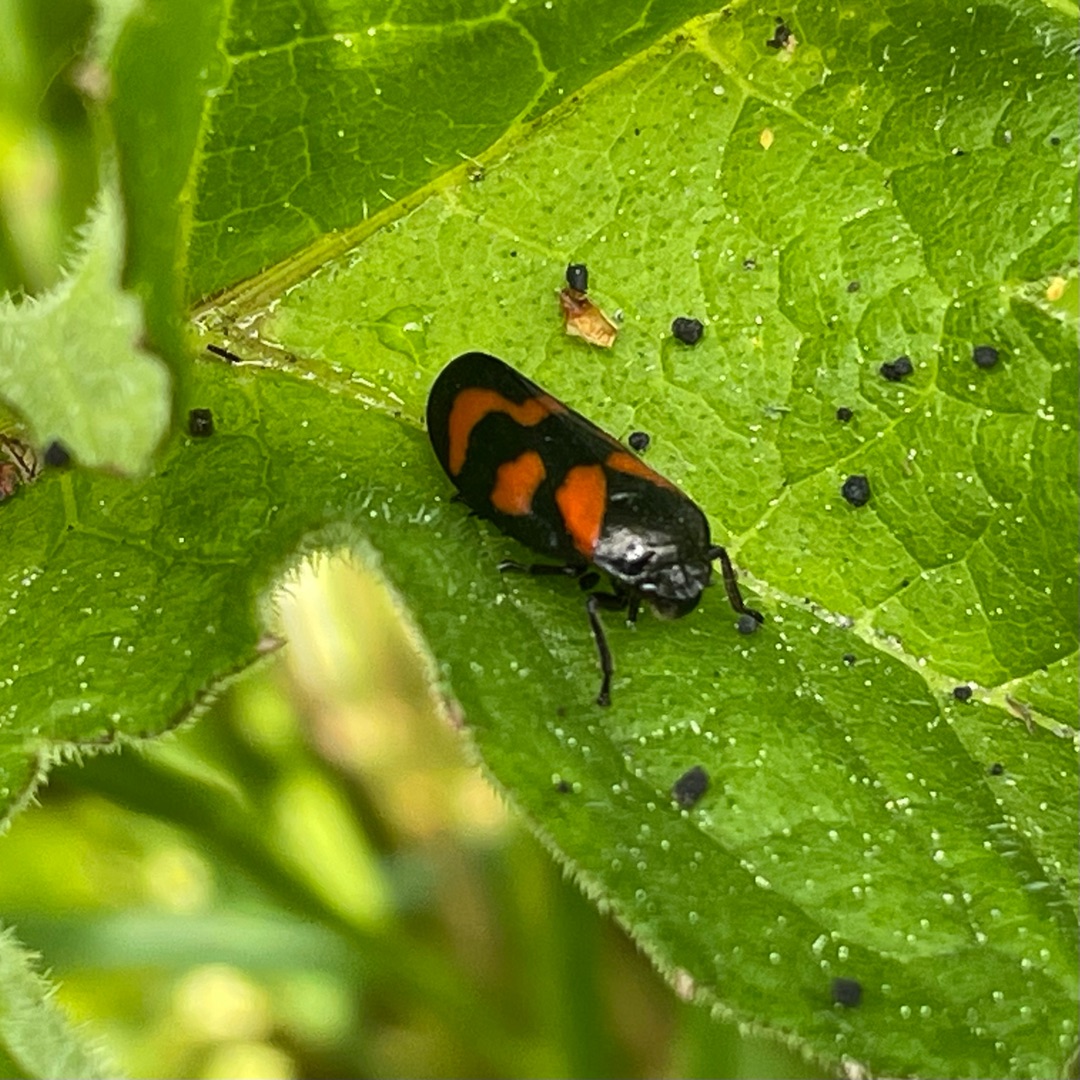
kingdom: Animalia
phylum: Arthropoda
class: Insecta
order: Hemiptera
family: Cercopidae
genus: Cercopis
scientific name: Cercopis vulnerata
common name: Blodcikade
